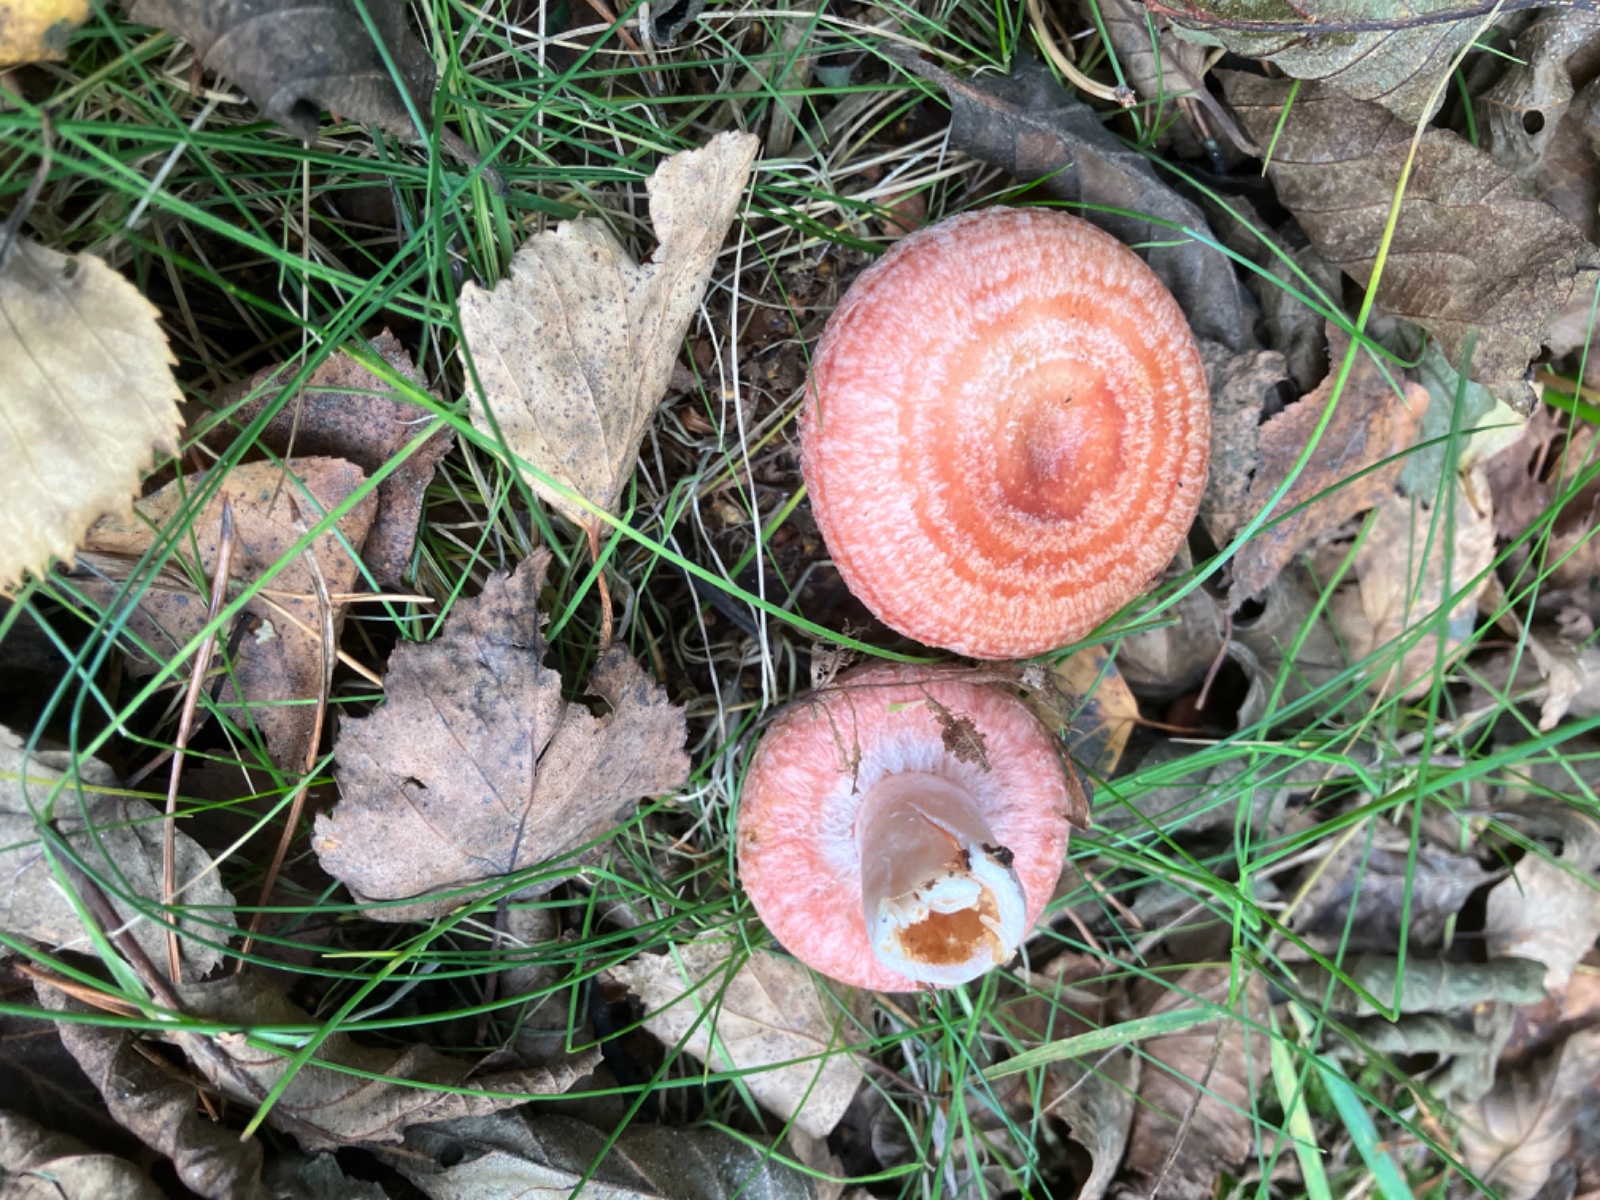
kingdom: Fungi
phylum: Basidiomycota
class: Agaricomycetes
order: Russulales
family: Russulaceae
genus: Lactarius
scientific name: Lactarius torminosus
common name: skægget mælkehat
